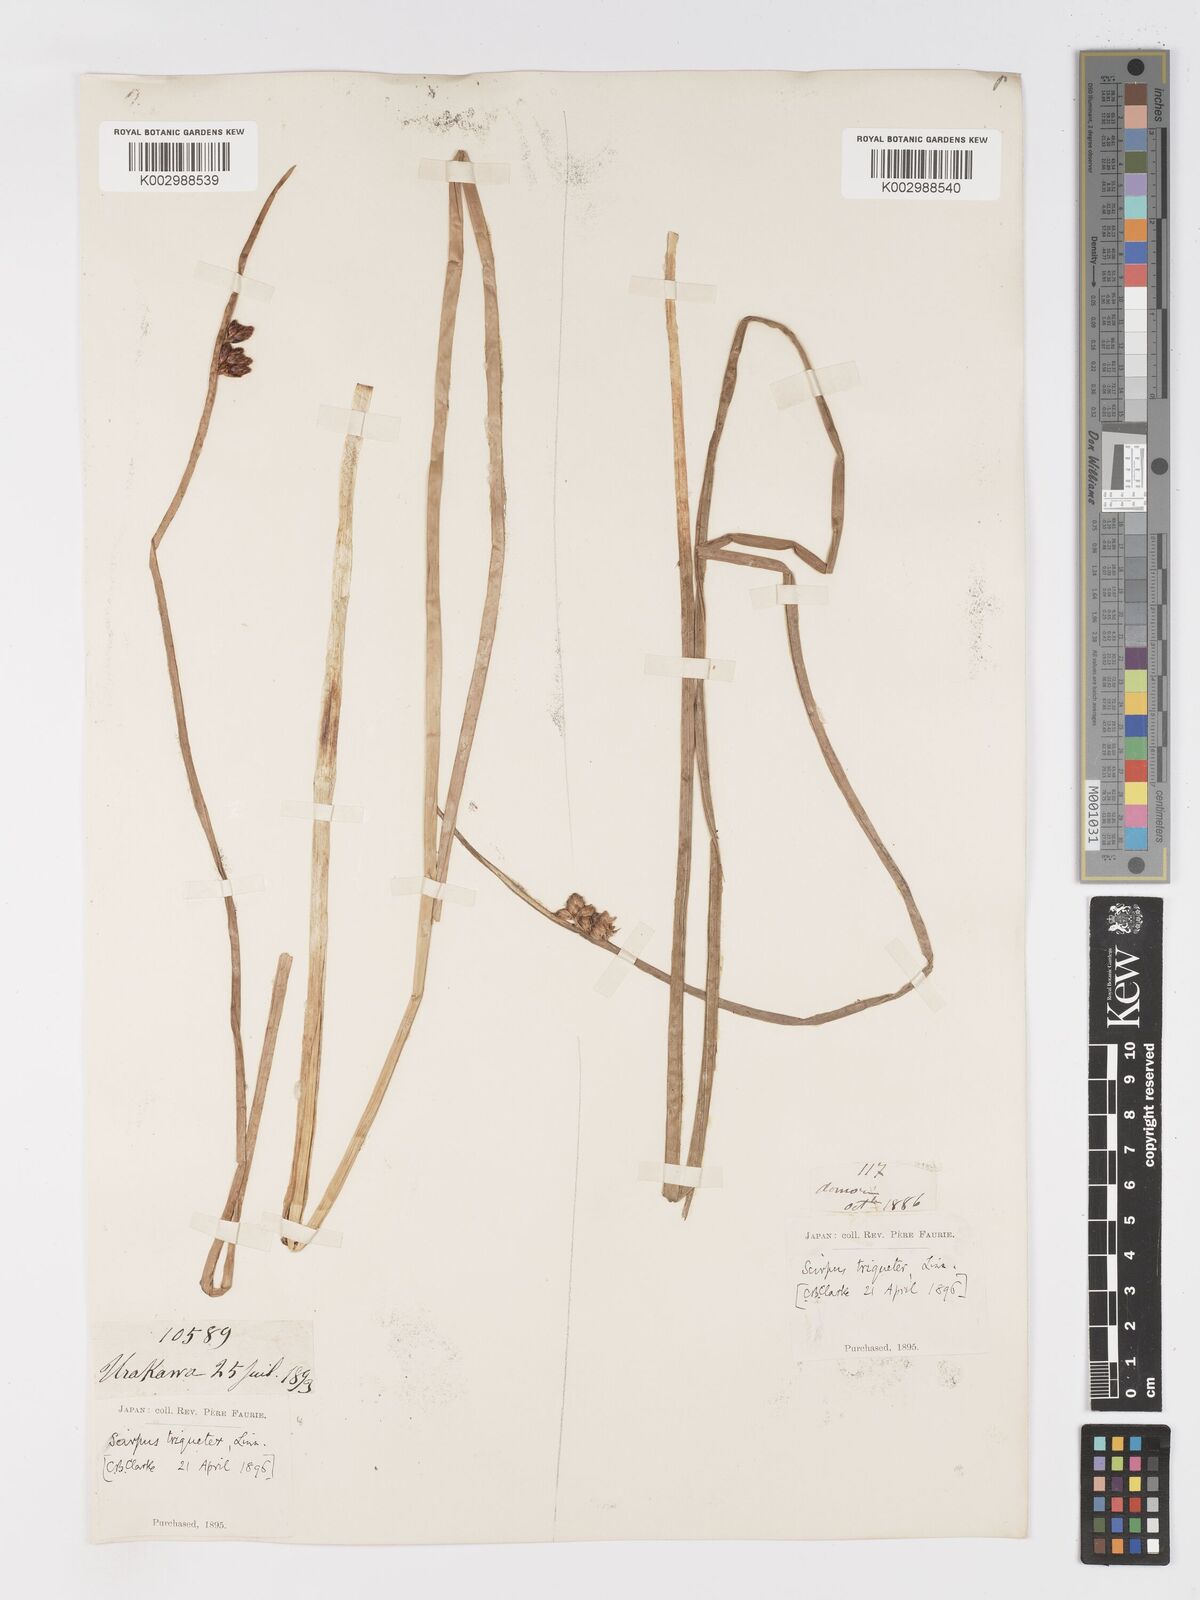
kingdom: Plantae
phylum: Tracheophyta
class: Liliopsida
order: Poales
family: Cyperaceae
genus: Schoenoplectus
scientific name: Schoenoplectus triqueter
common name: Triangular club-rush
